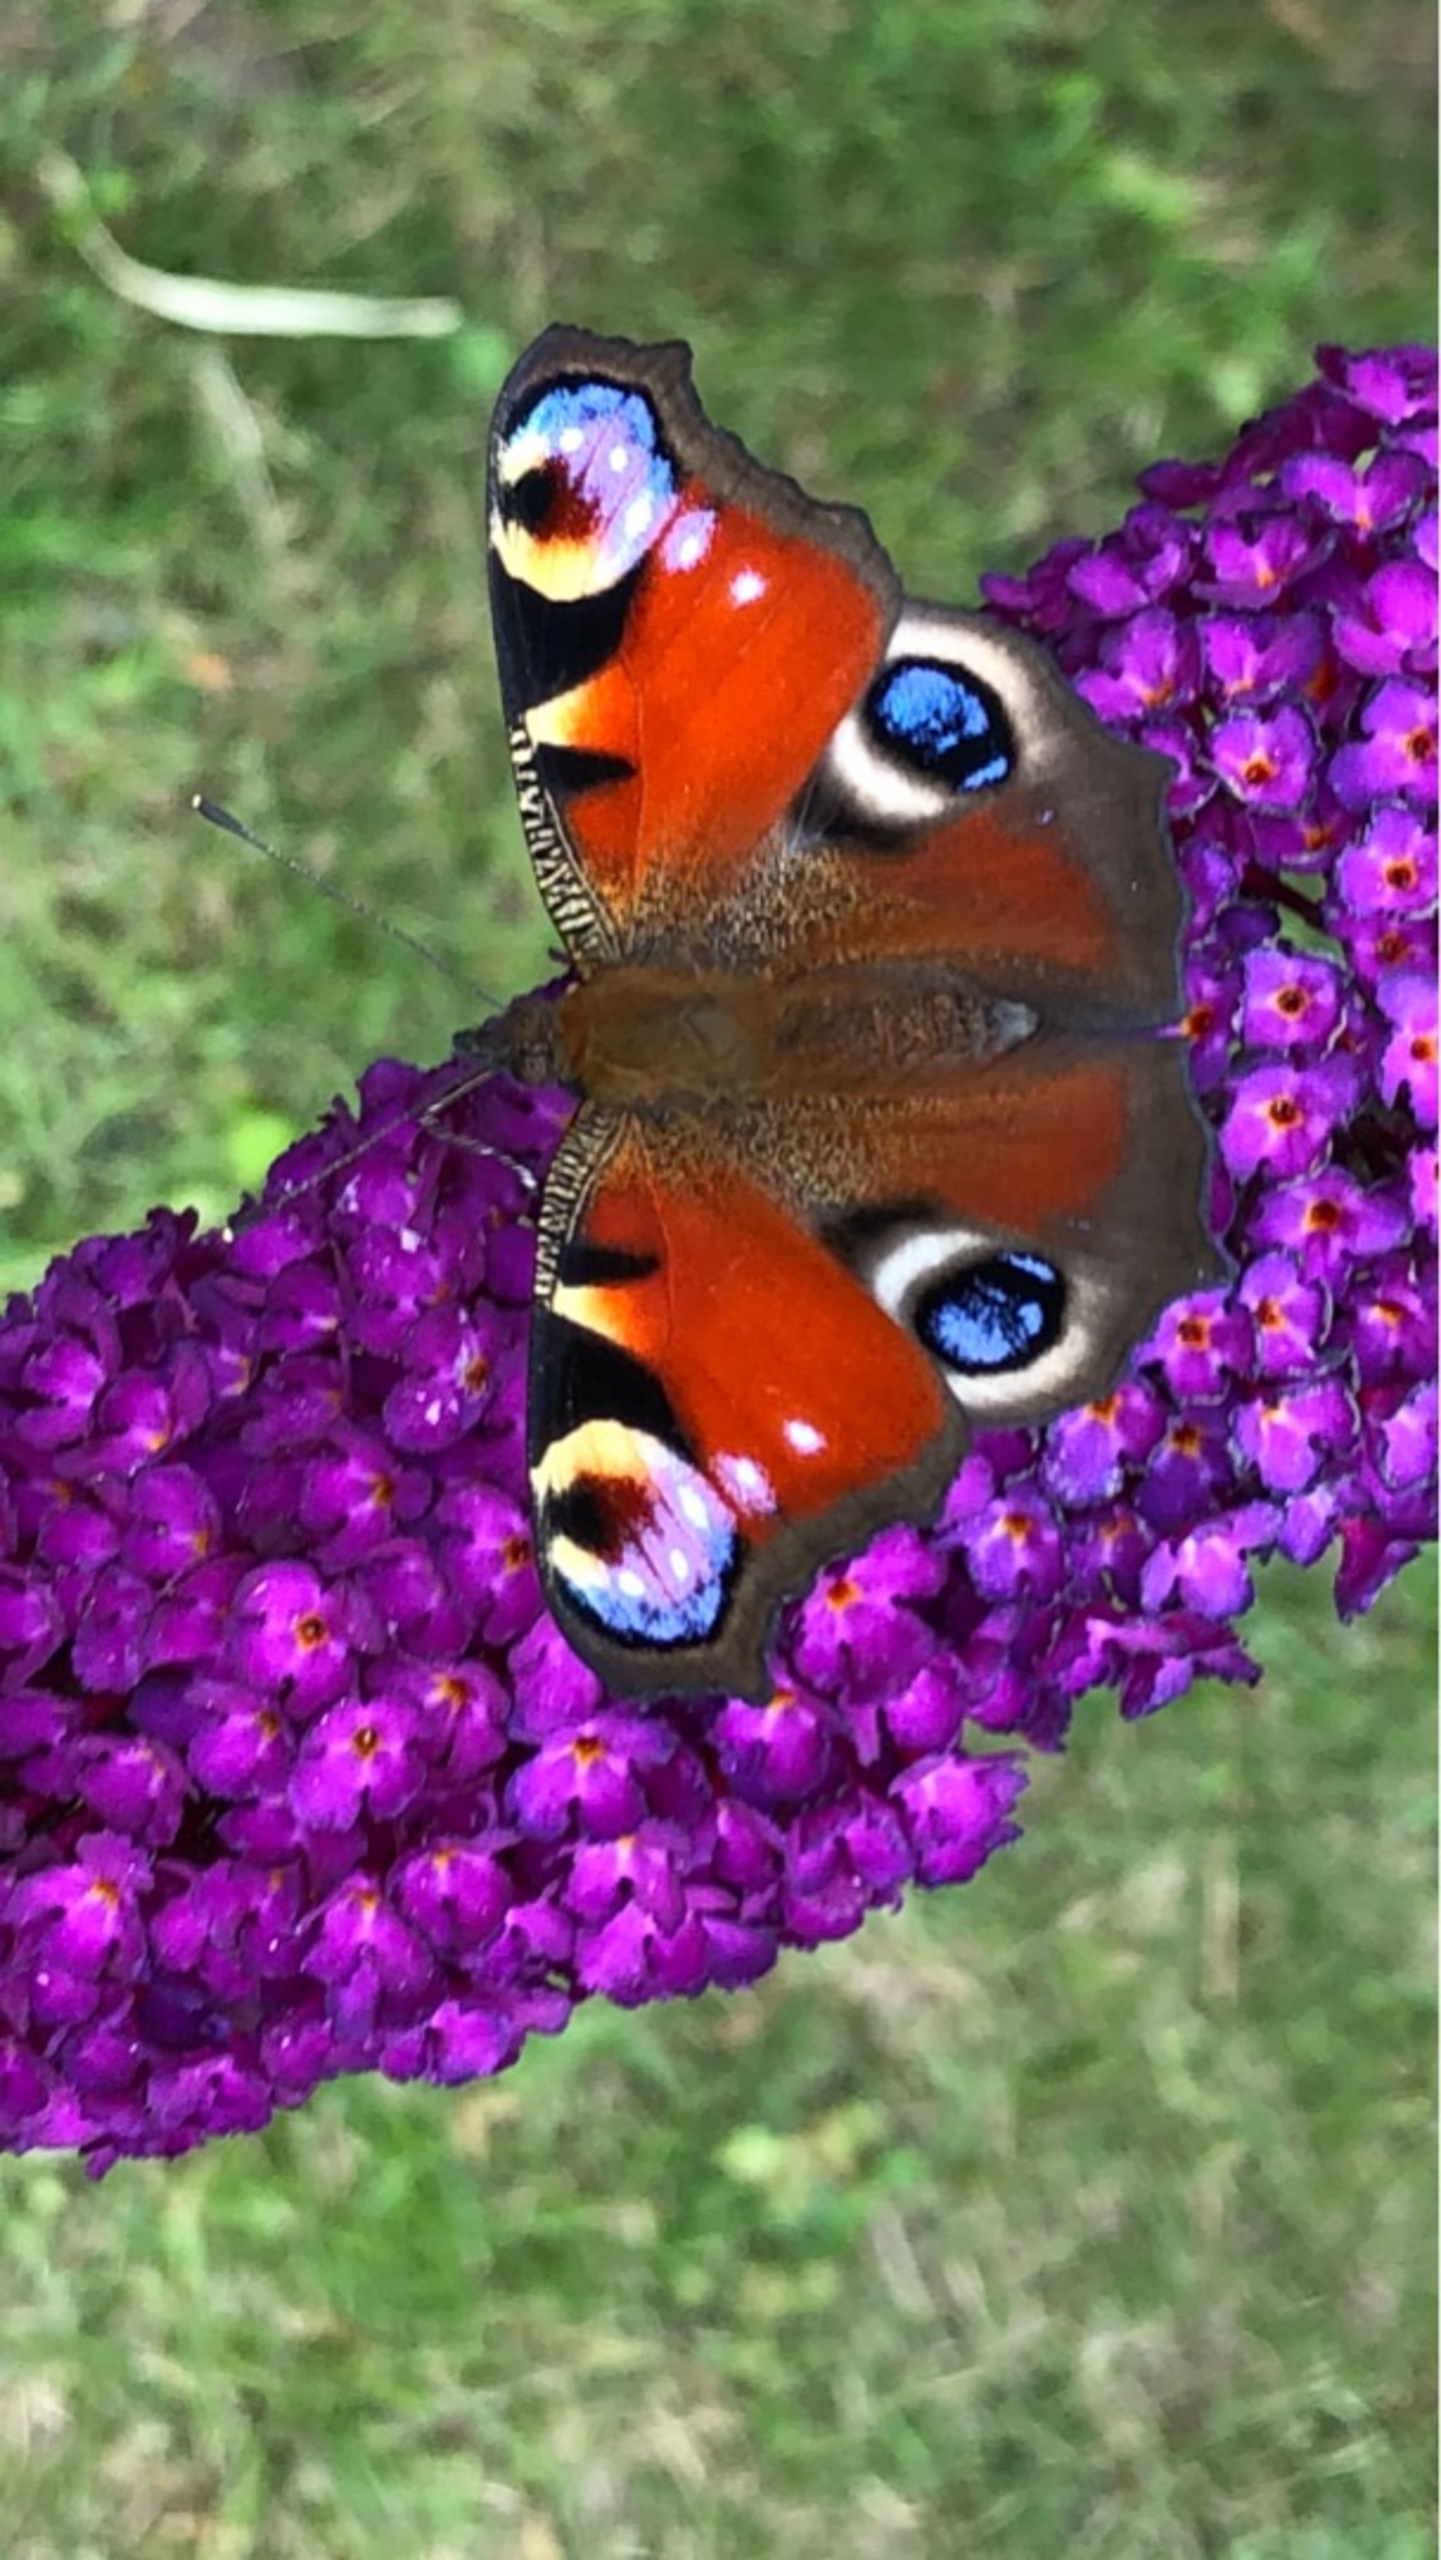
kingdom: Animalia
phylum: Arthropoda
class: Insecta
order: Lepidoptera
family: Nymphalidae
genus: Aglais
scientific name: Aglais io
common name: Dagpåfugleøje
